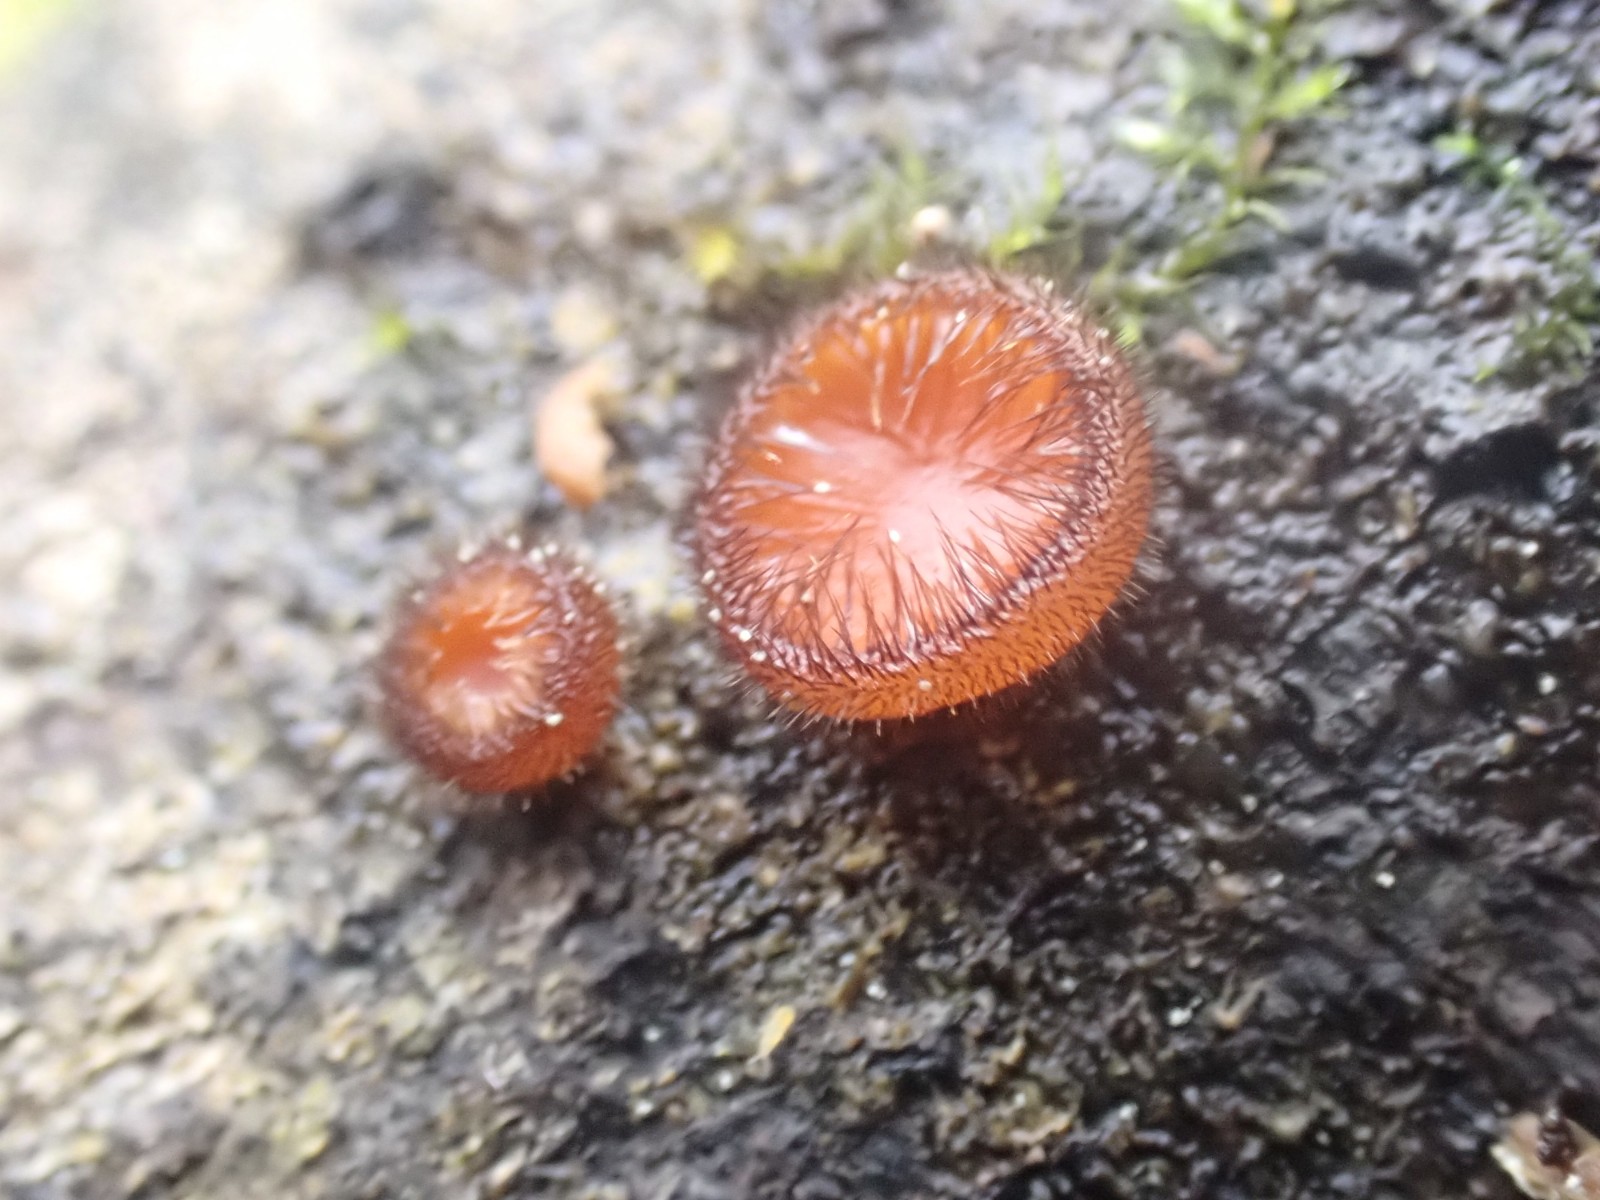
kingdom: Fungi
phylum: Ascomycota
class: Pezizomycetes
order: Pezizales
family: Pyronemataceae
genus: Scutellinia
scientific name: Scutellinia scutellata
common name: frynset skjoldbæger
